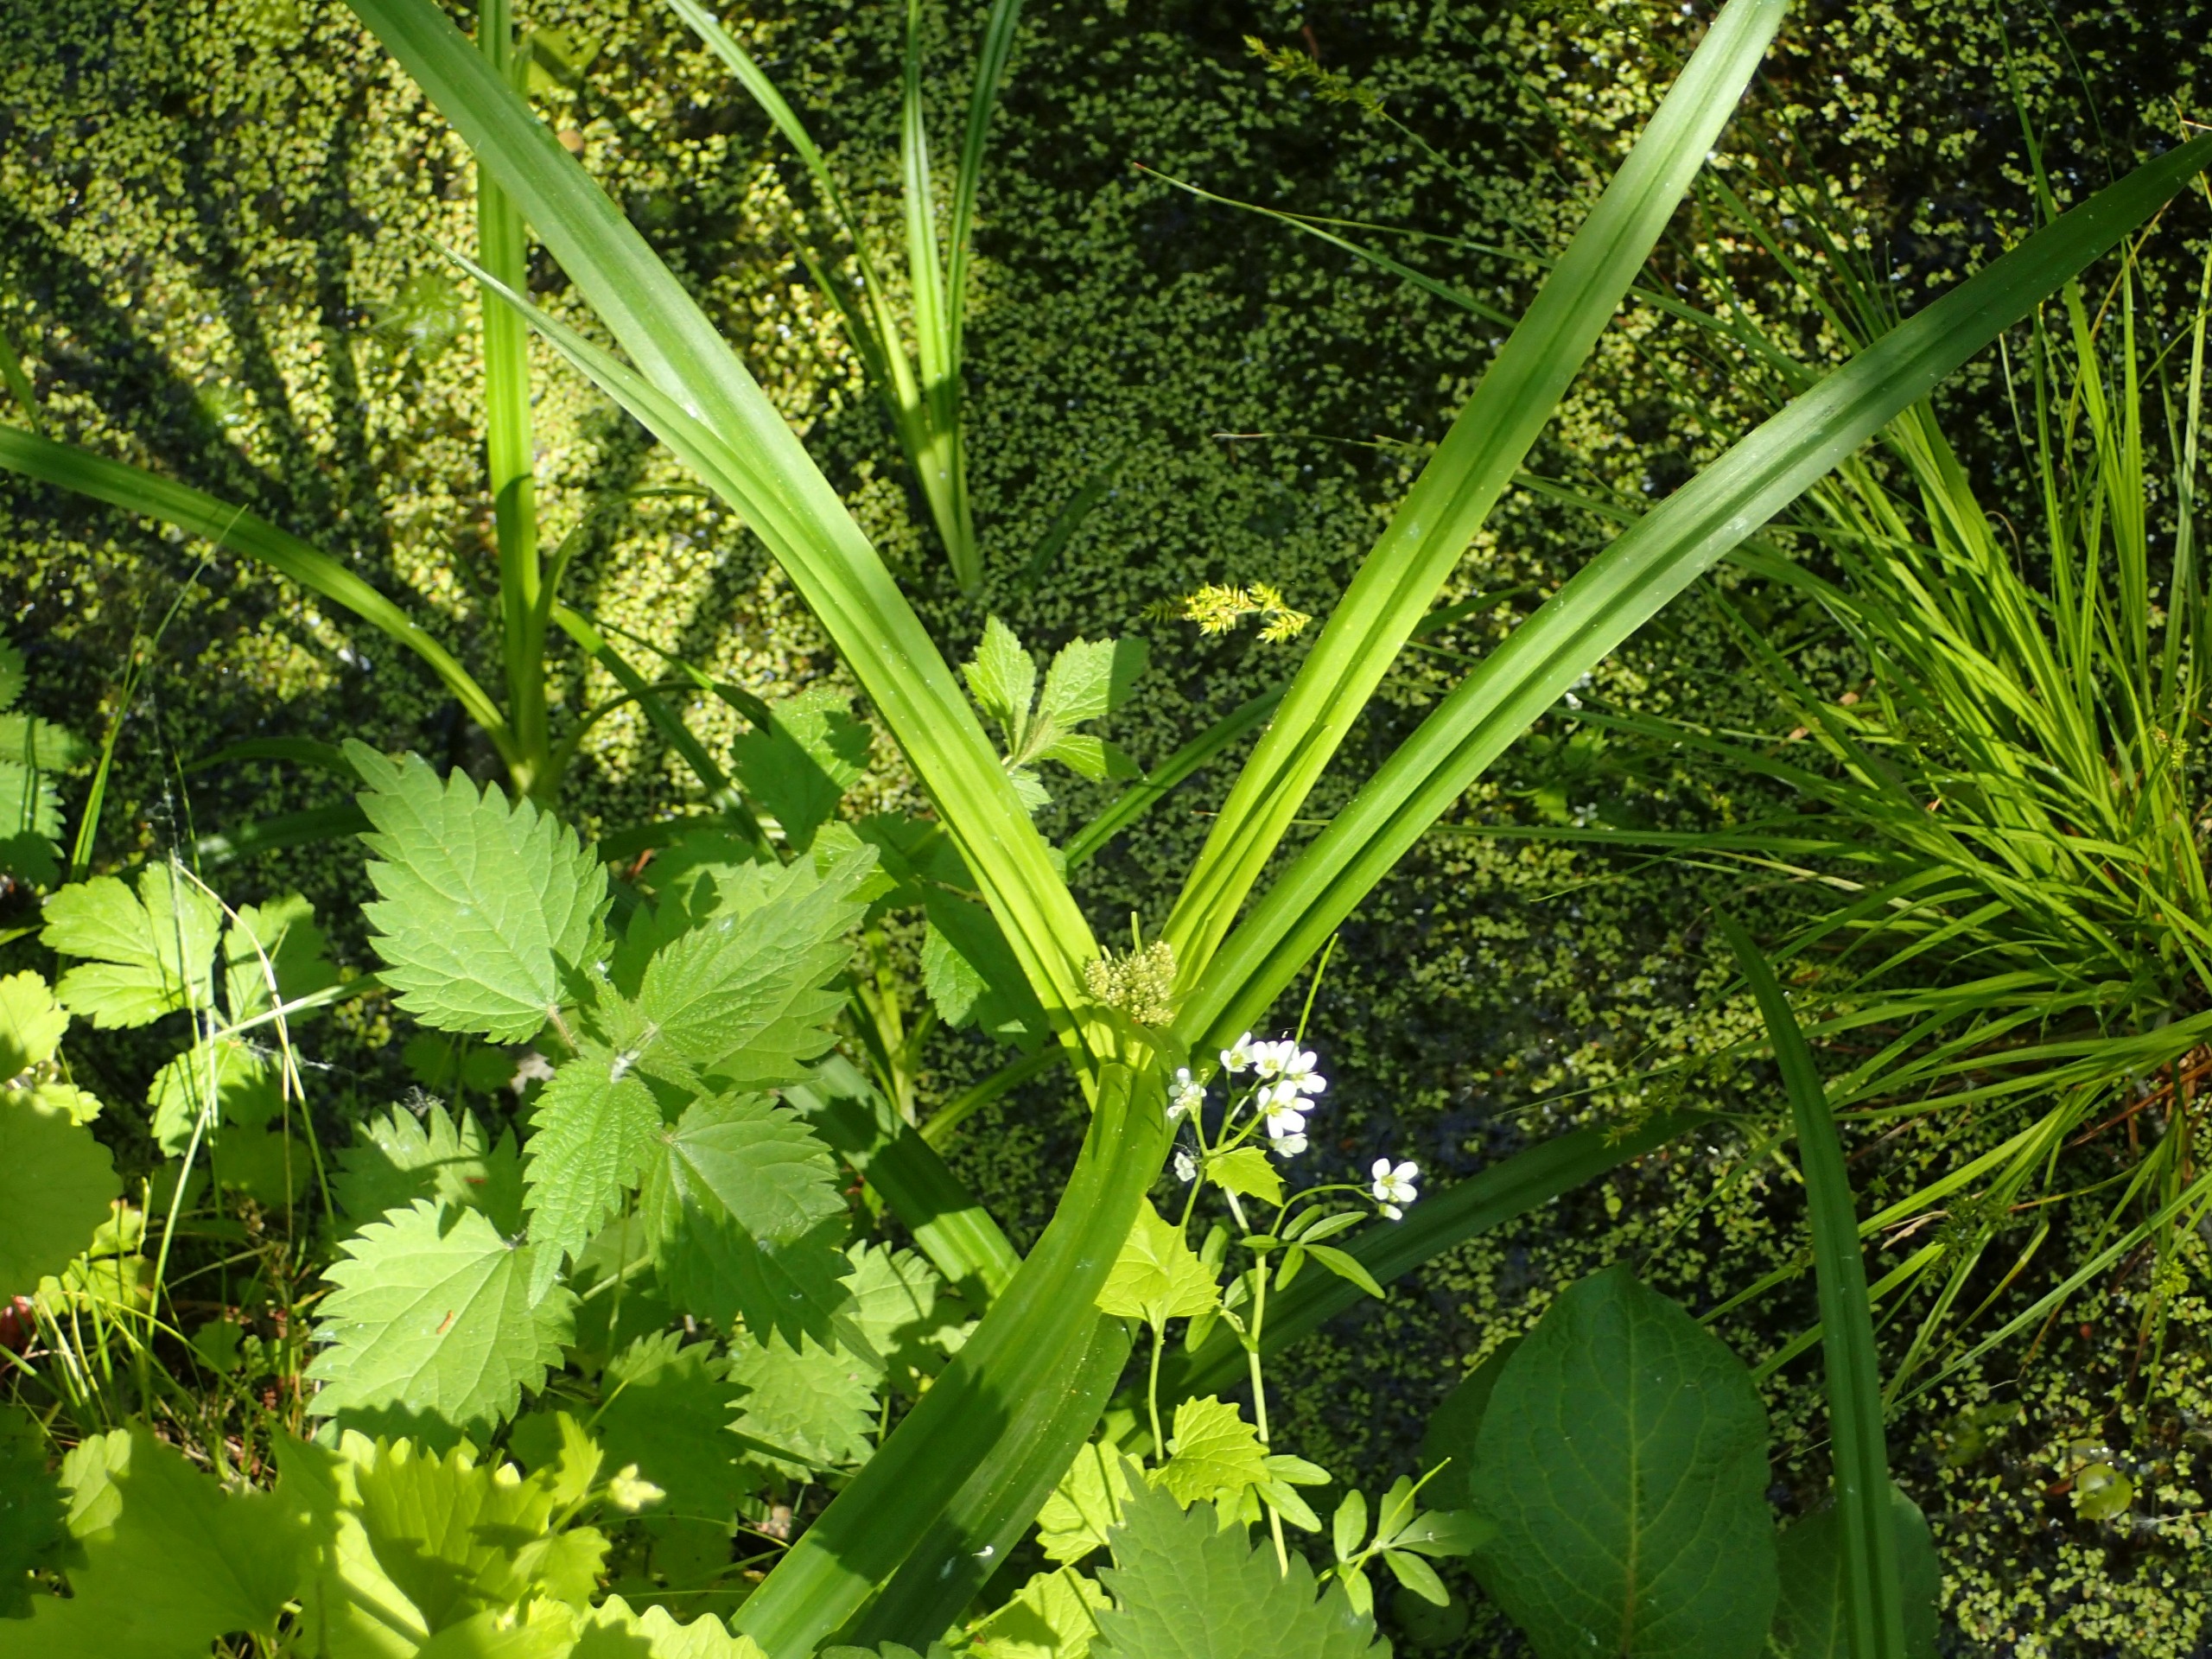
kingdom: Plantae
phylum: Tracheophyta
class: Liliopsida
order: Poales
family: Cyperaceae
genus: Scirpus
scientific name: Scirpus sylvaticus
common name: Skov-kogleaks
